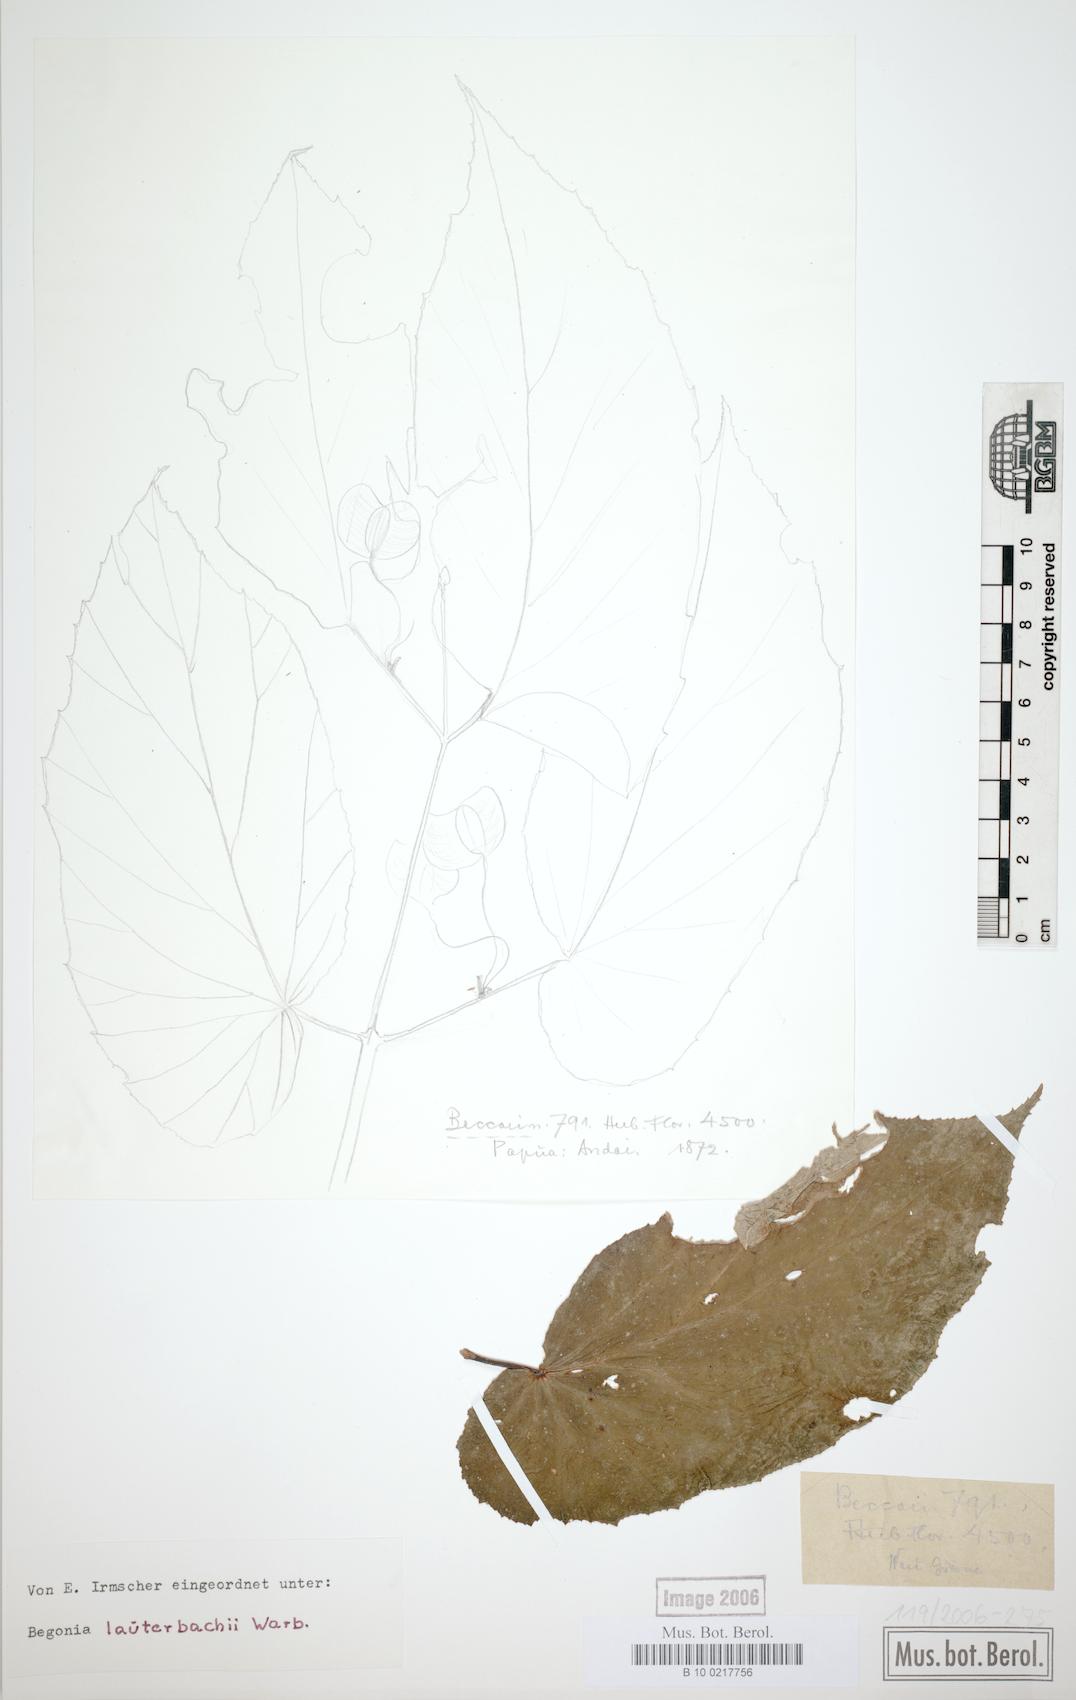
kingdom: Plantae
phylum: Tracheophyta
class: Magnoliopsida
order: Cucurbitales
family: Begoniaceae
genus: Begonia
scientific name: Begonia lauterbachii
